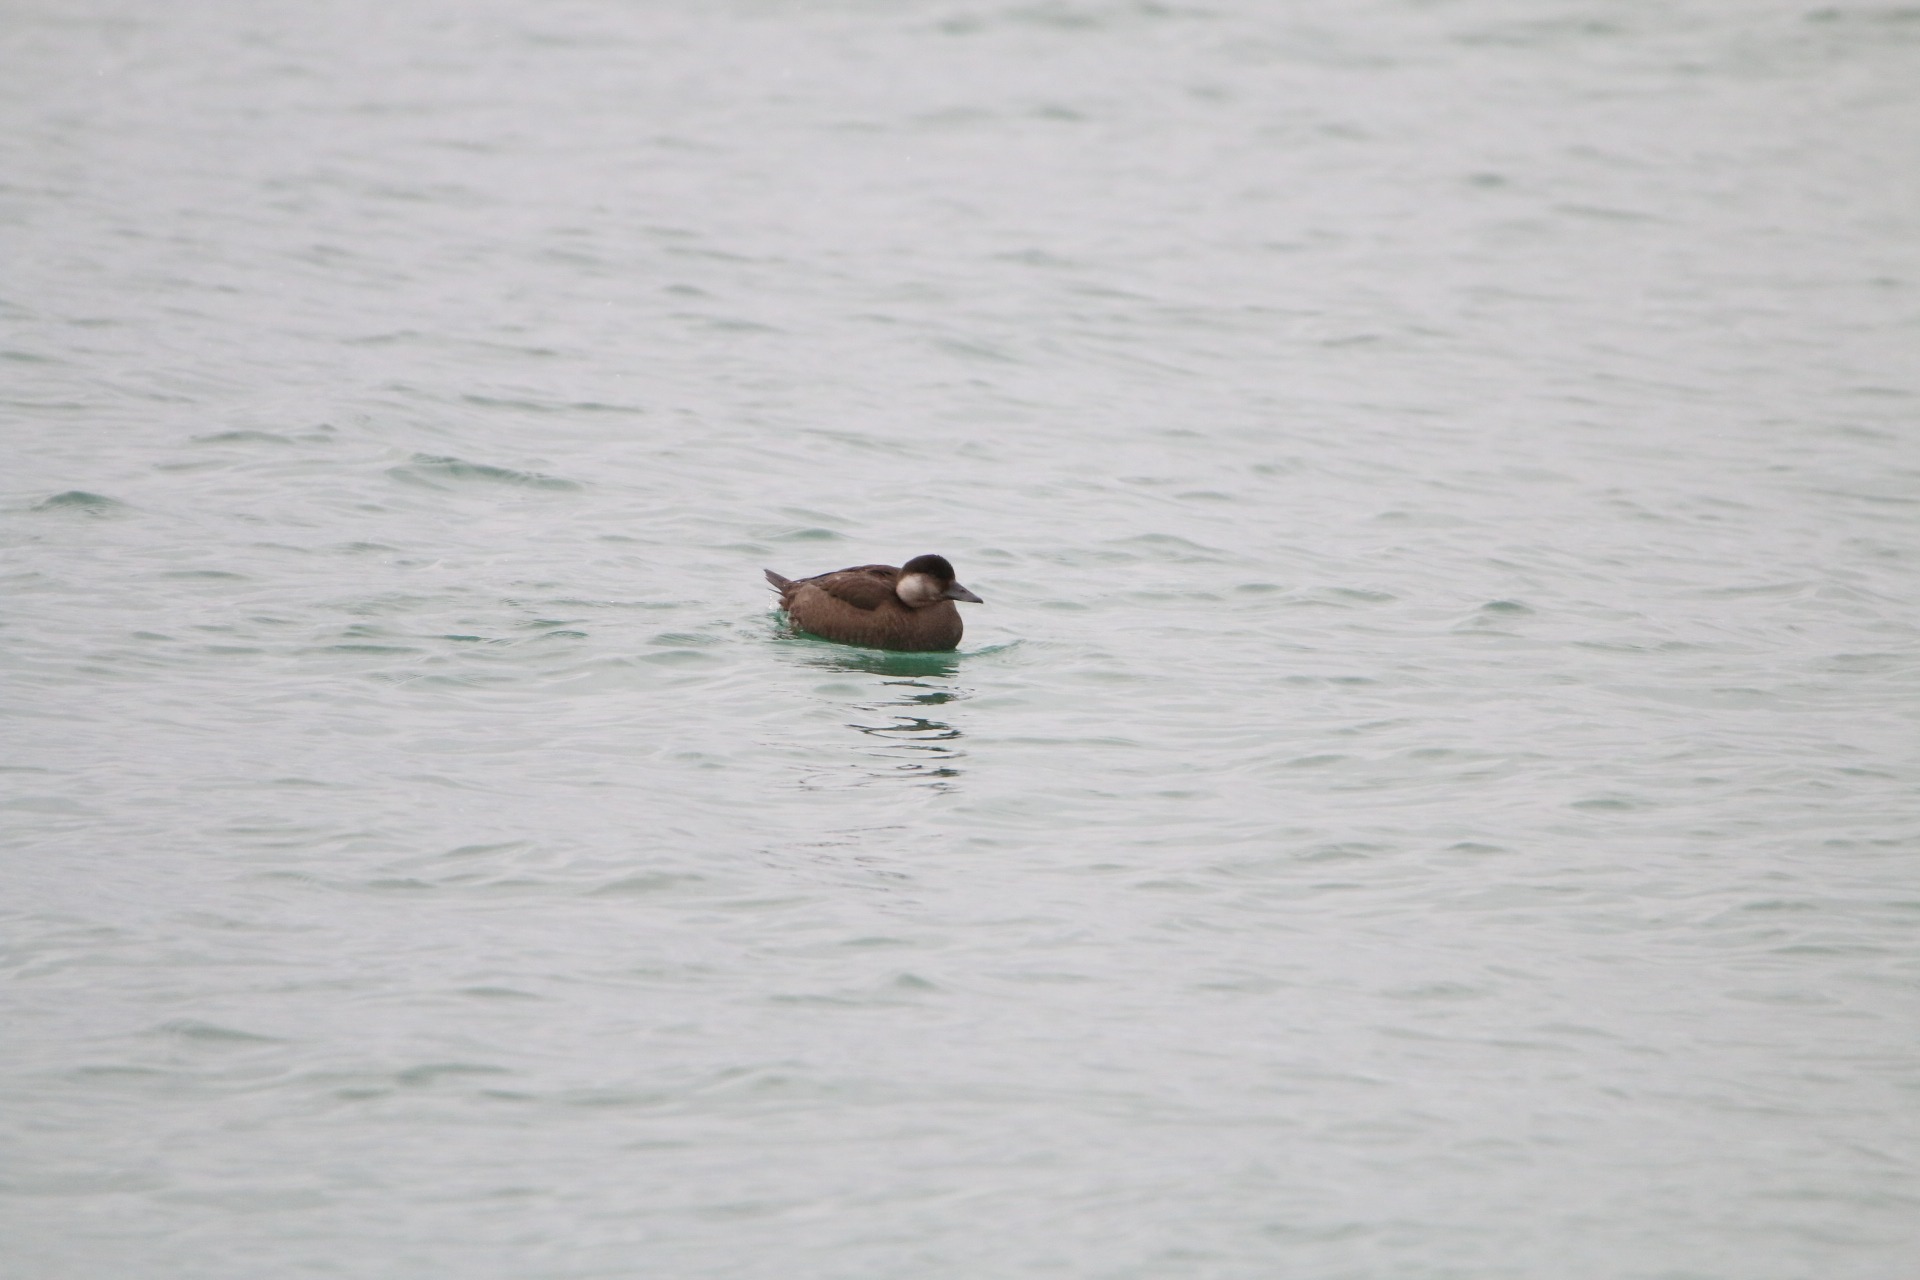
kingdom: Animalia
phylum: Chordata
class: Aves
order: Anseriformes
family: Anatidae
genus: Melanitta
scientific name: Melanitta nigra
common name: Sortand
